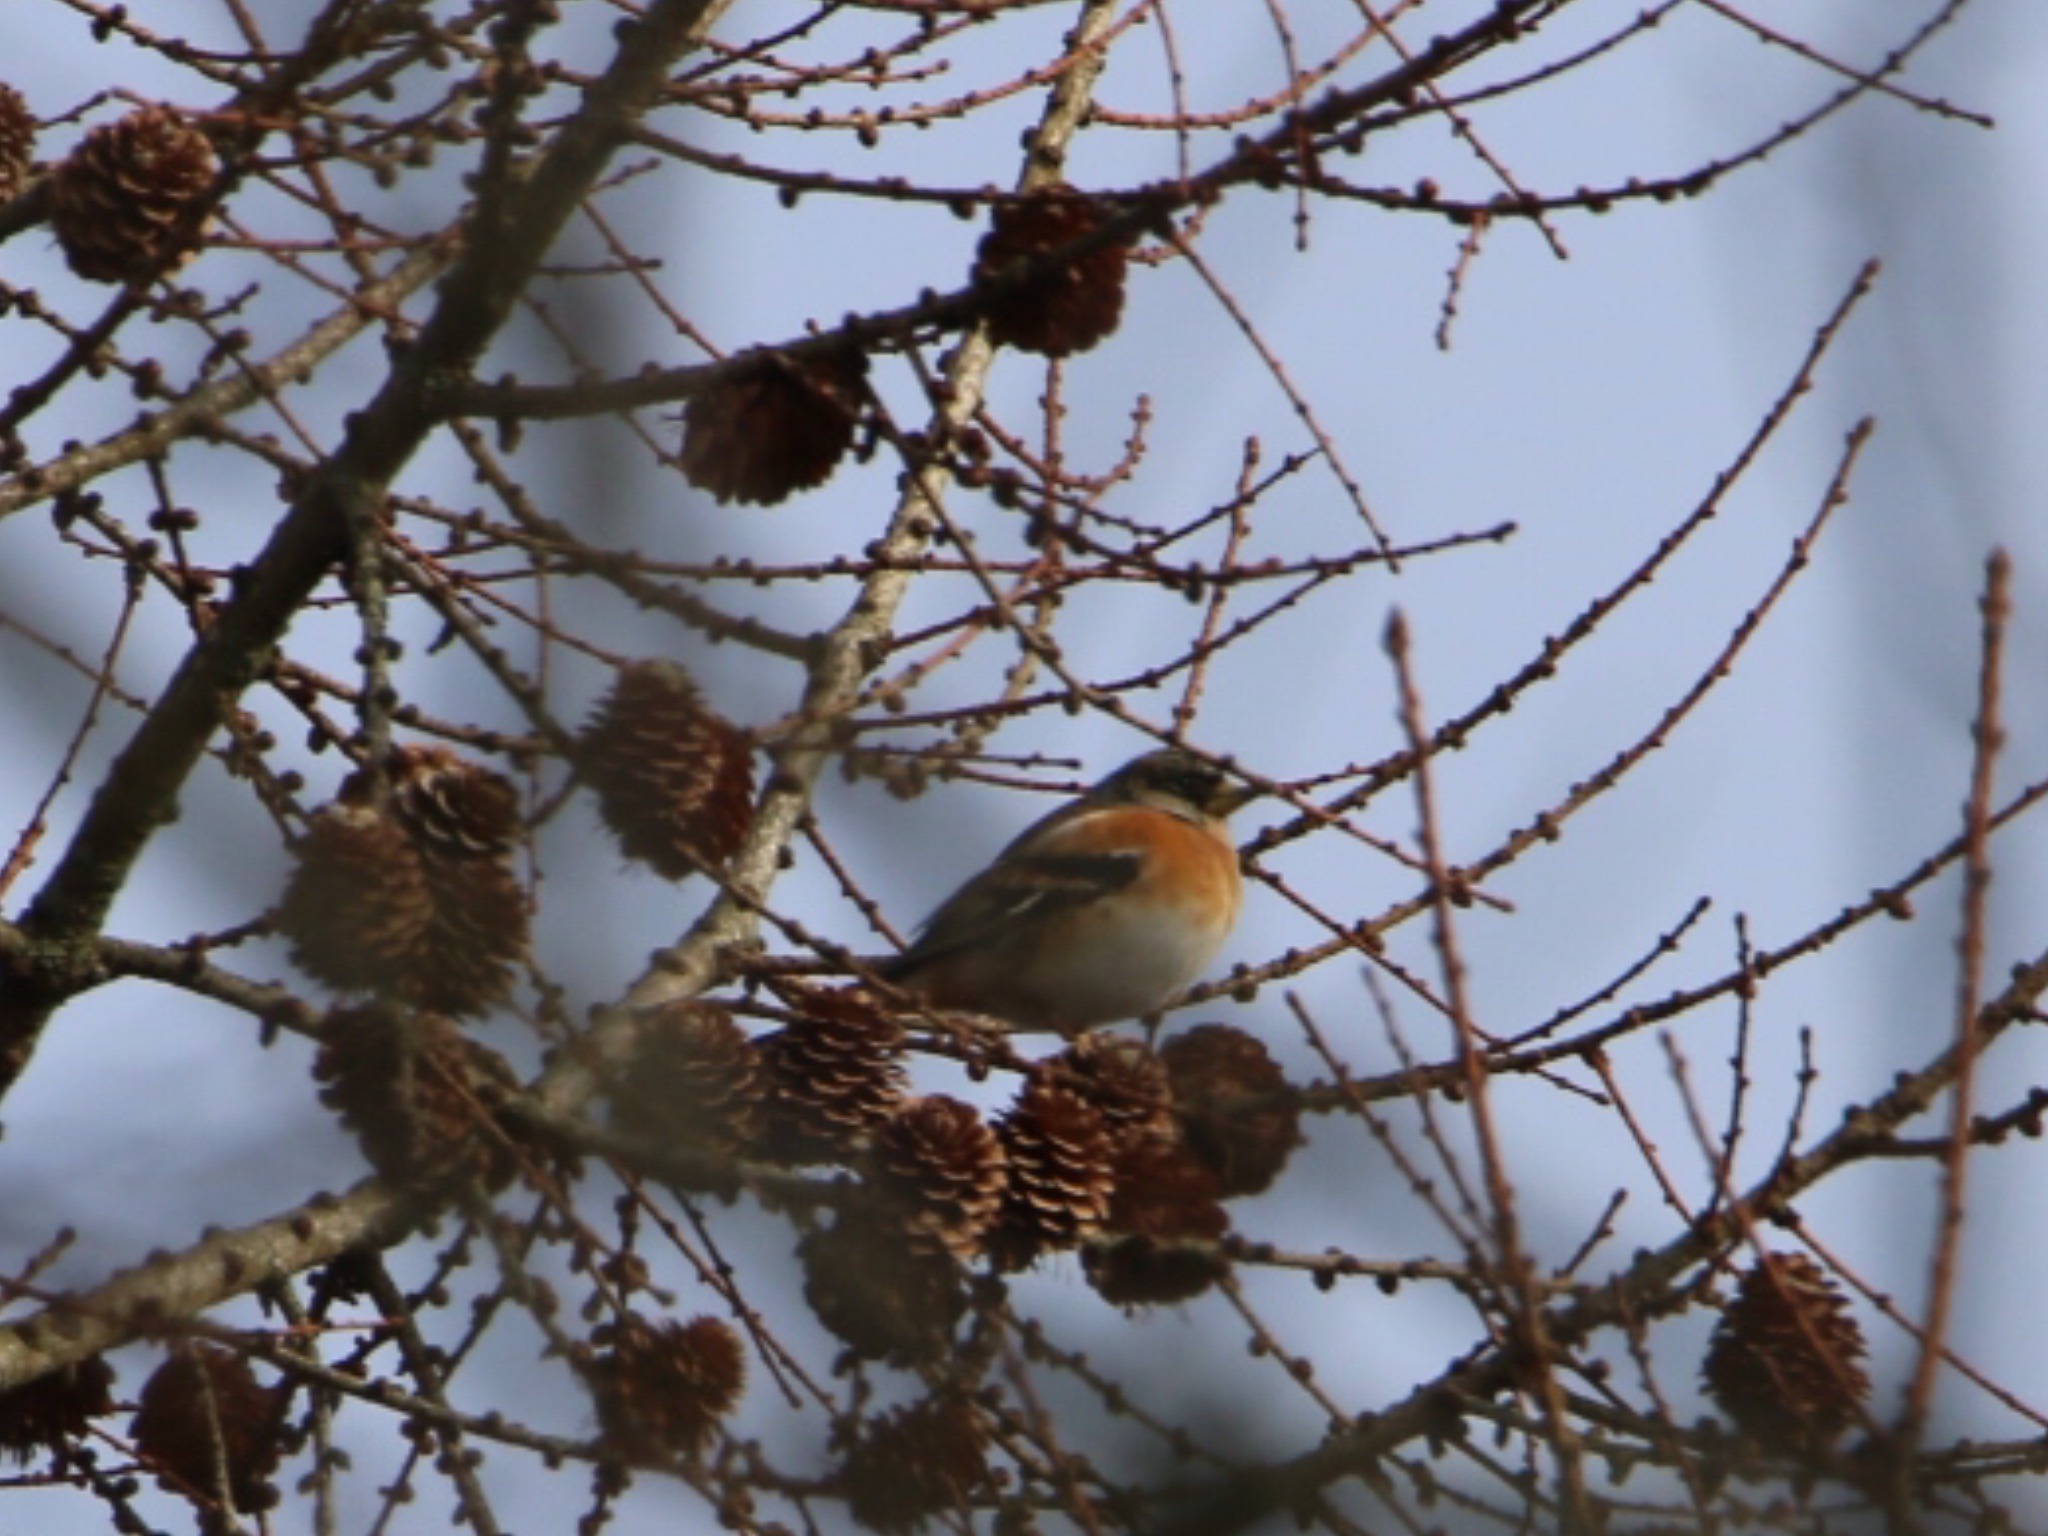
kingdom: Animalia
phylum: Chordata
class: Aves
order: Passeriformes
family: Fringillidae
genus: Fringilla
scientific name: Fringilla montifringilla
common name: Kvækerfinke
